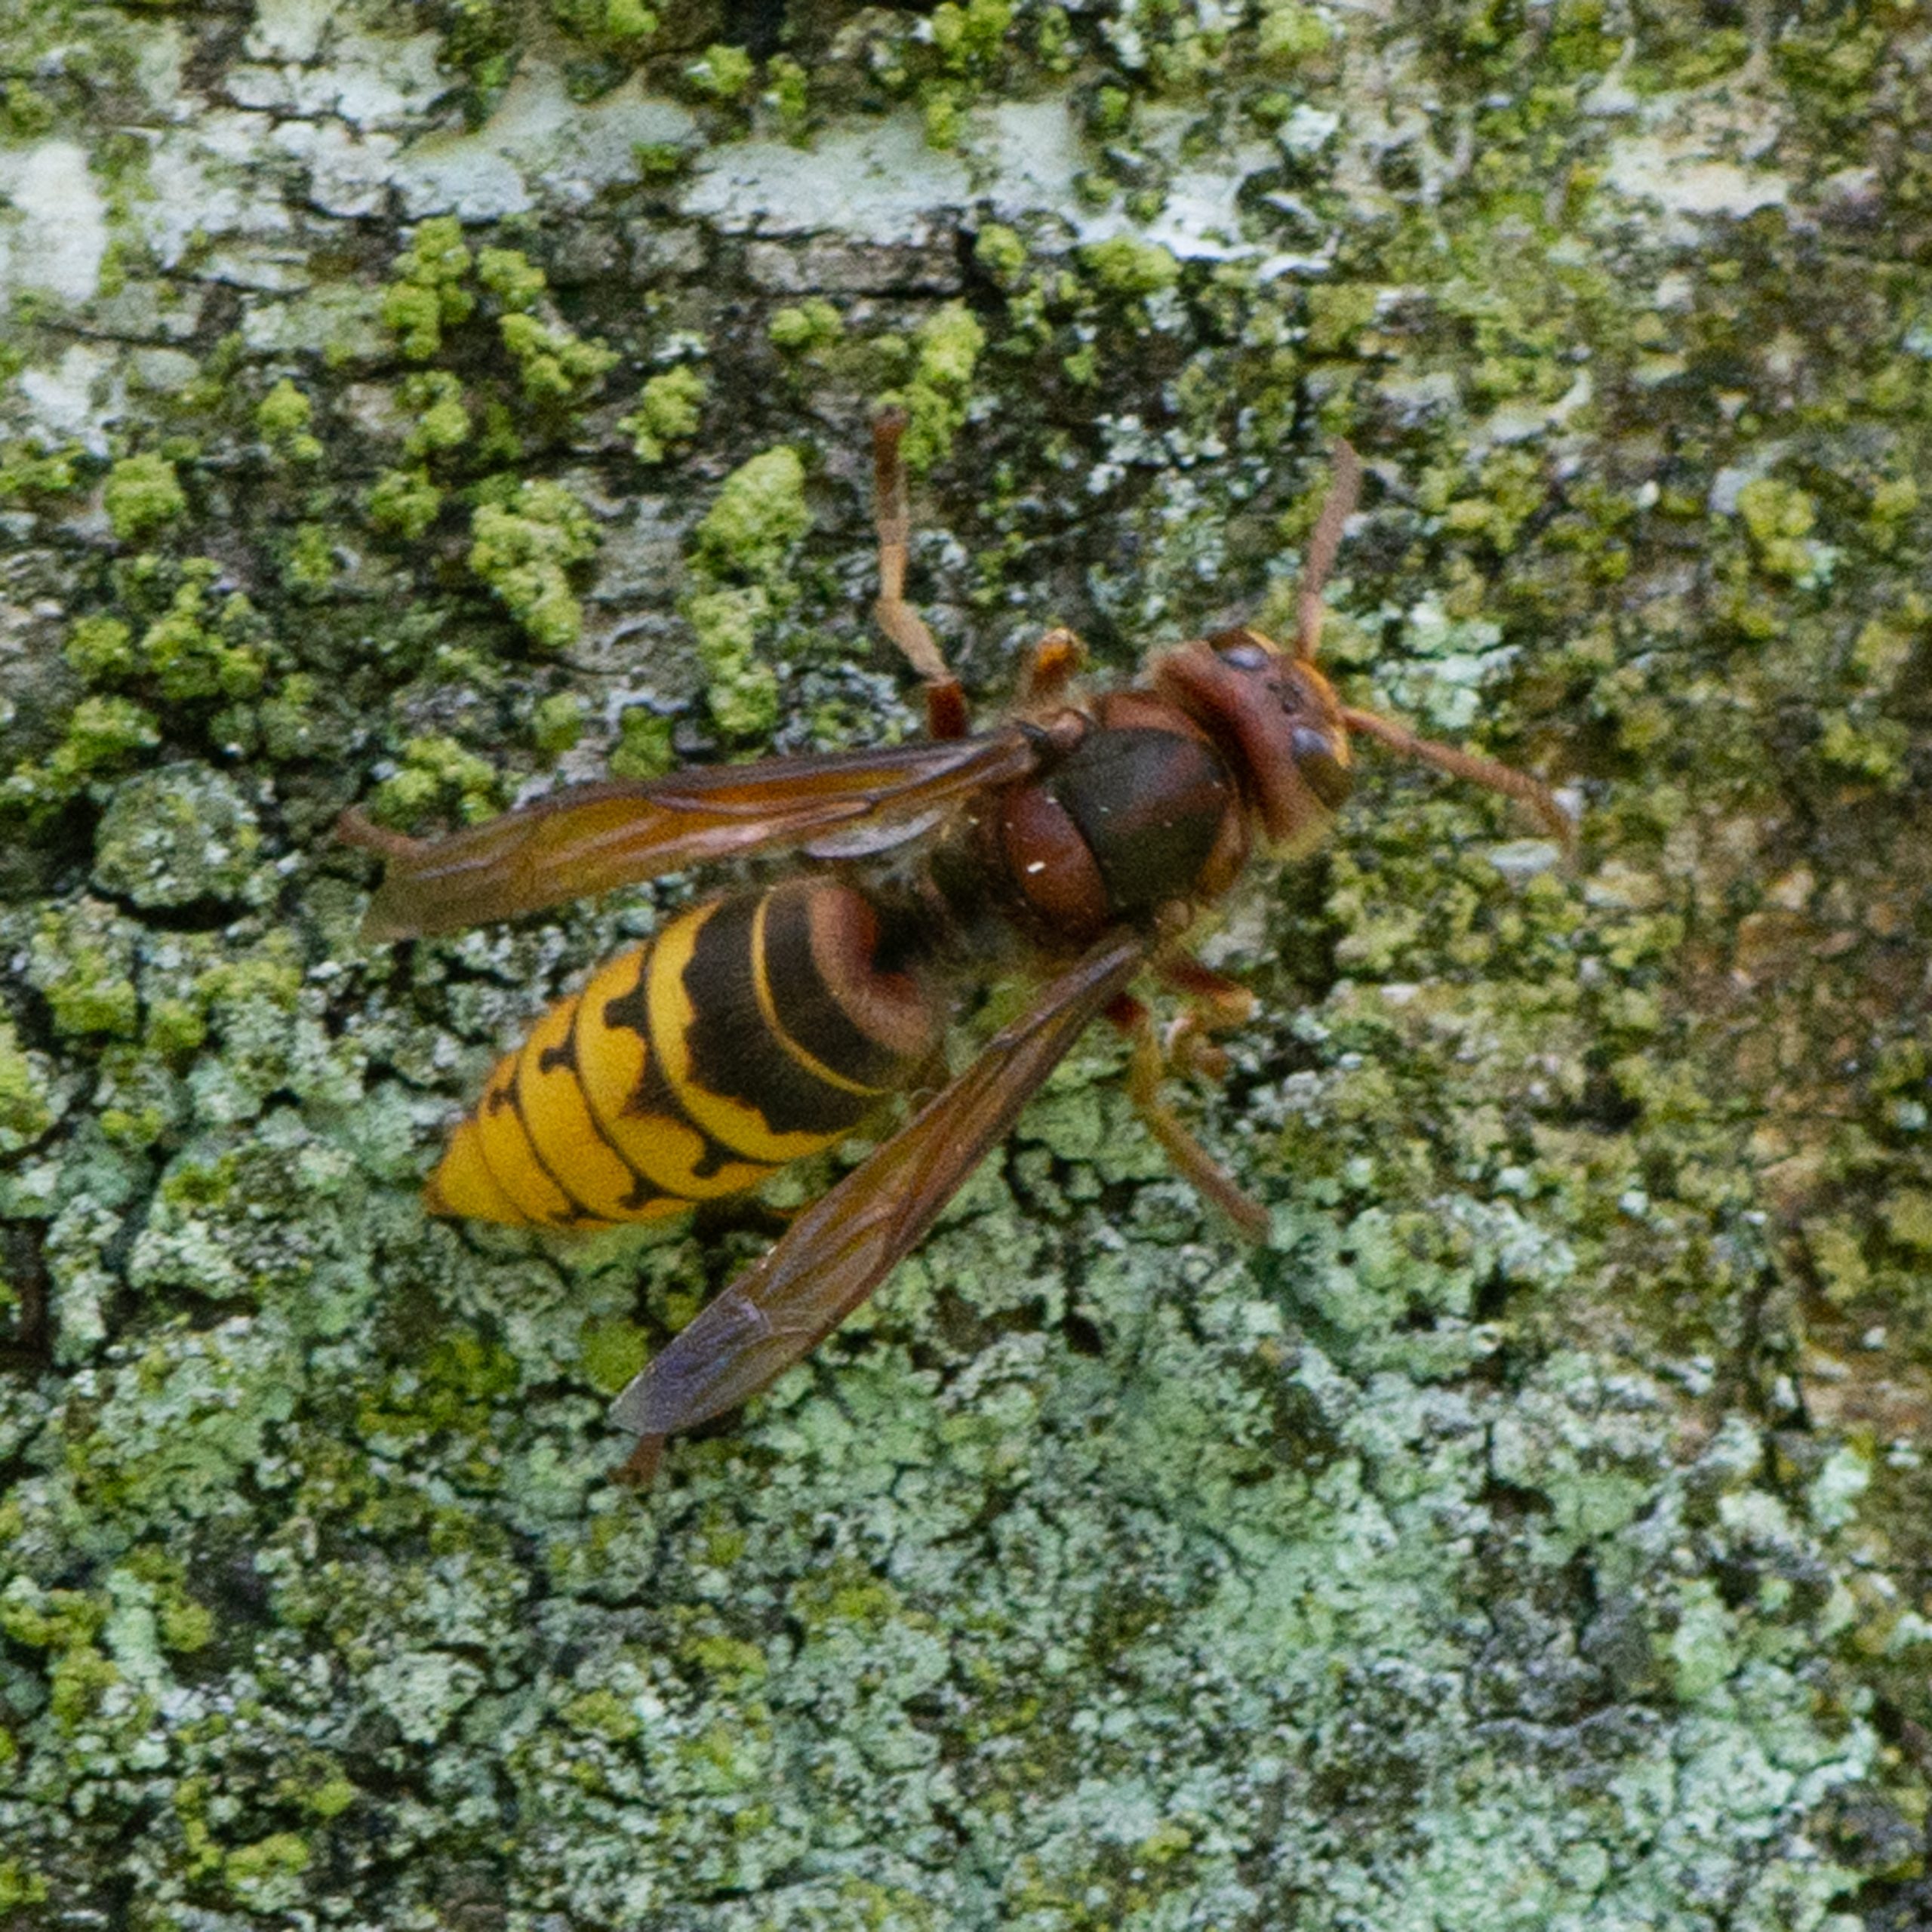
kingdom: Animalia
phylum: Arthropoda
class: Insecta
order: Hymenoptera
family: Vespidae
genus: Vespa
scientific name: Vespa crabro
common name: Stor gedehams
